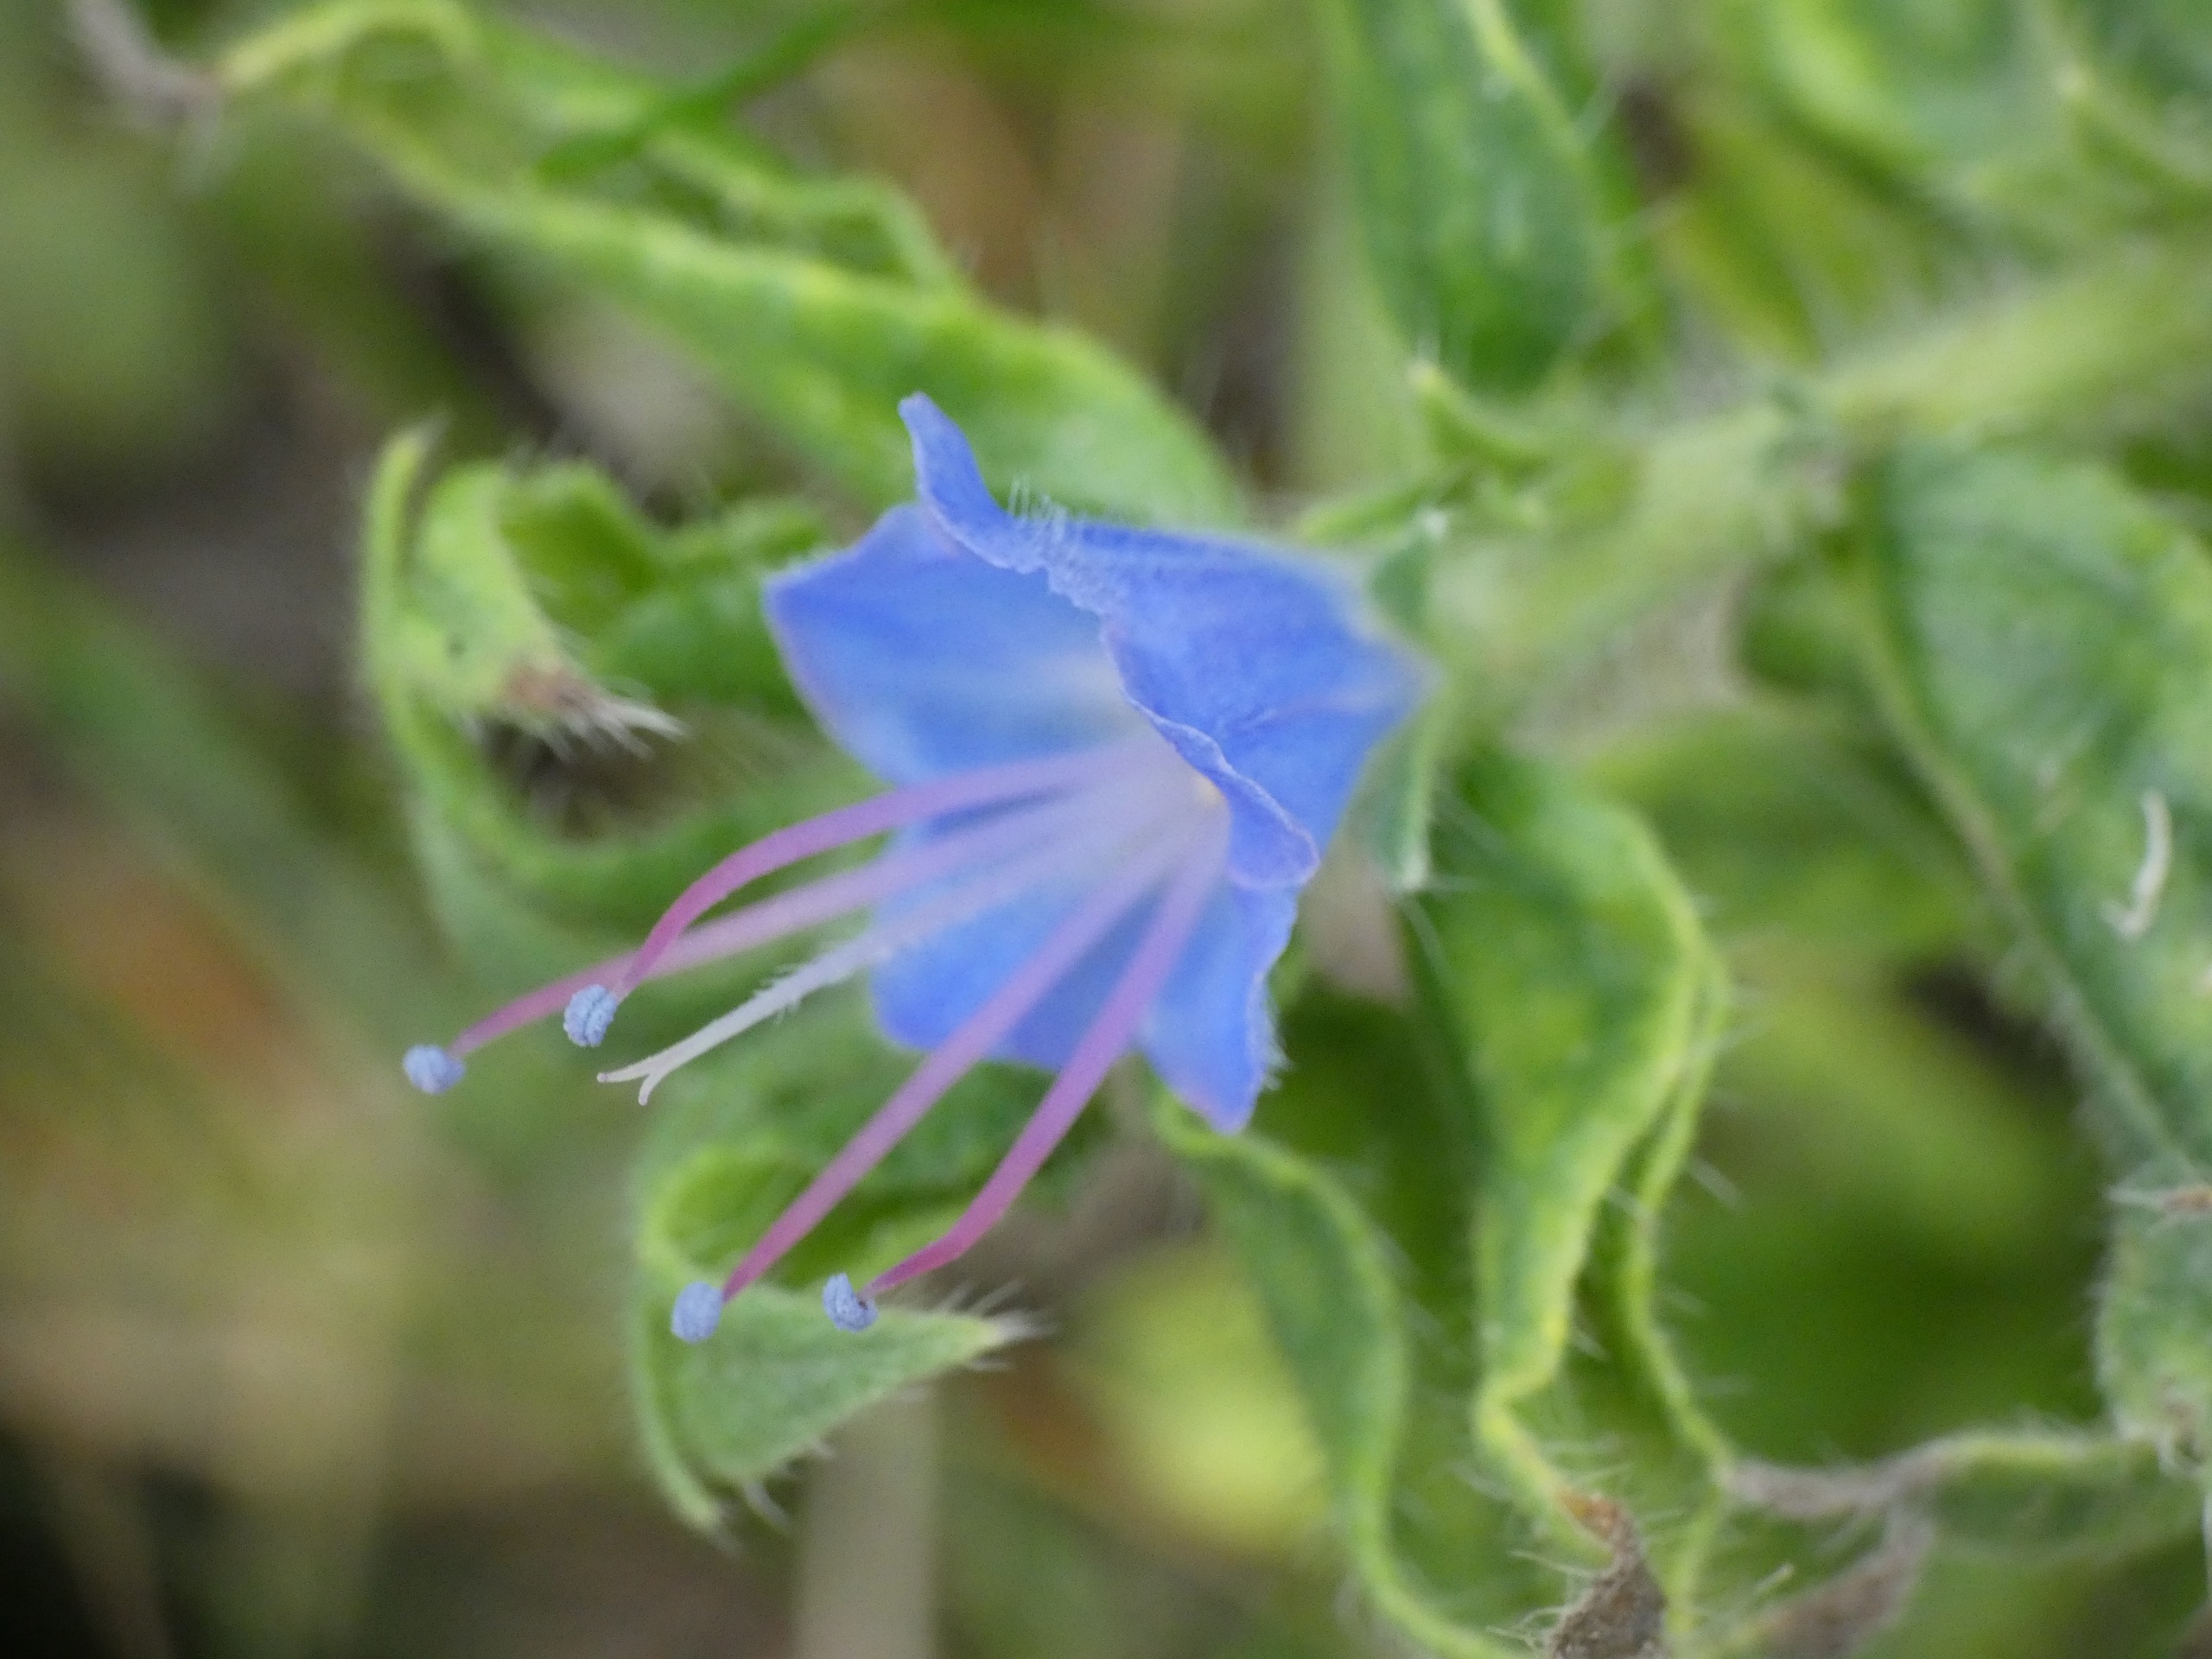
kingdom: Plantae
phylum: Tracheophyta
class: Magnoliopsida
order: Boraginales
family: Boraginaceae
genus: Echium
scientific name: Echium vulgare
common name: Slangehoved
